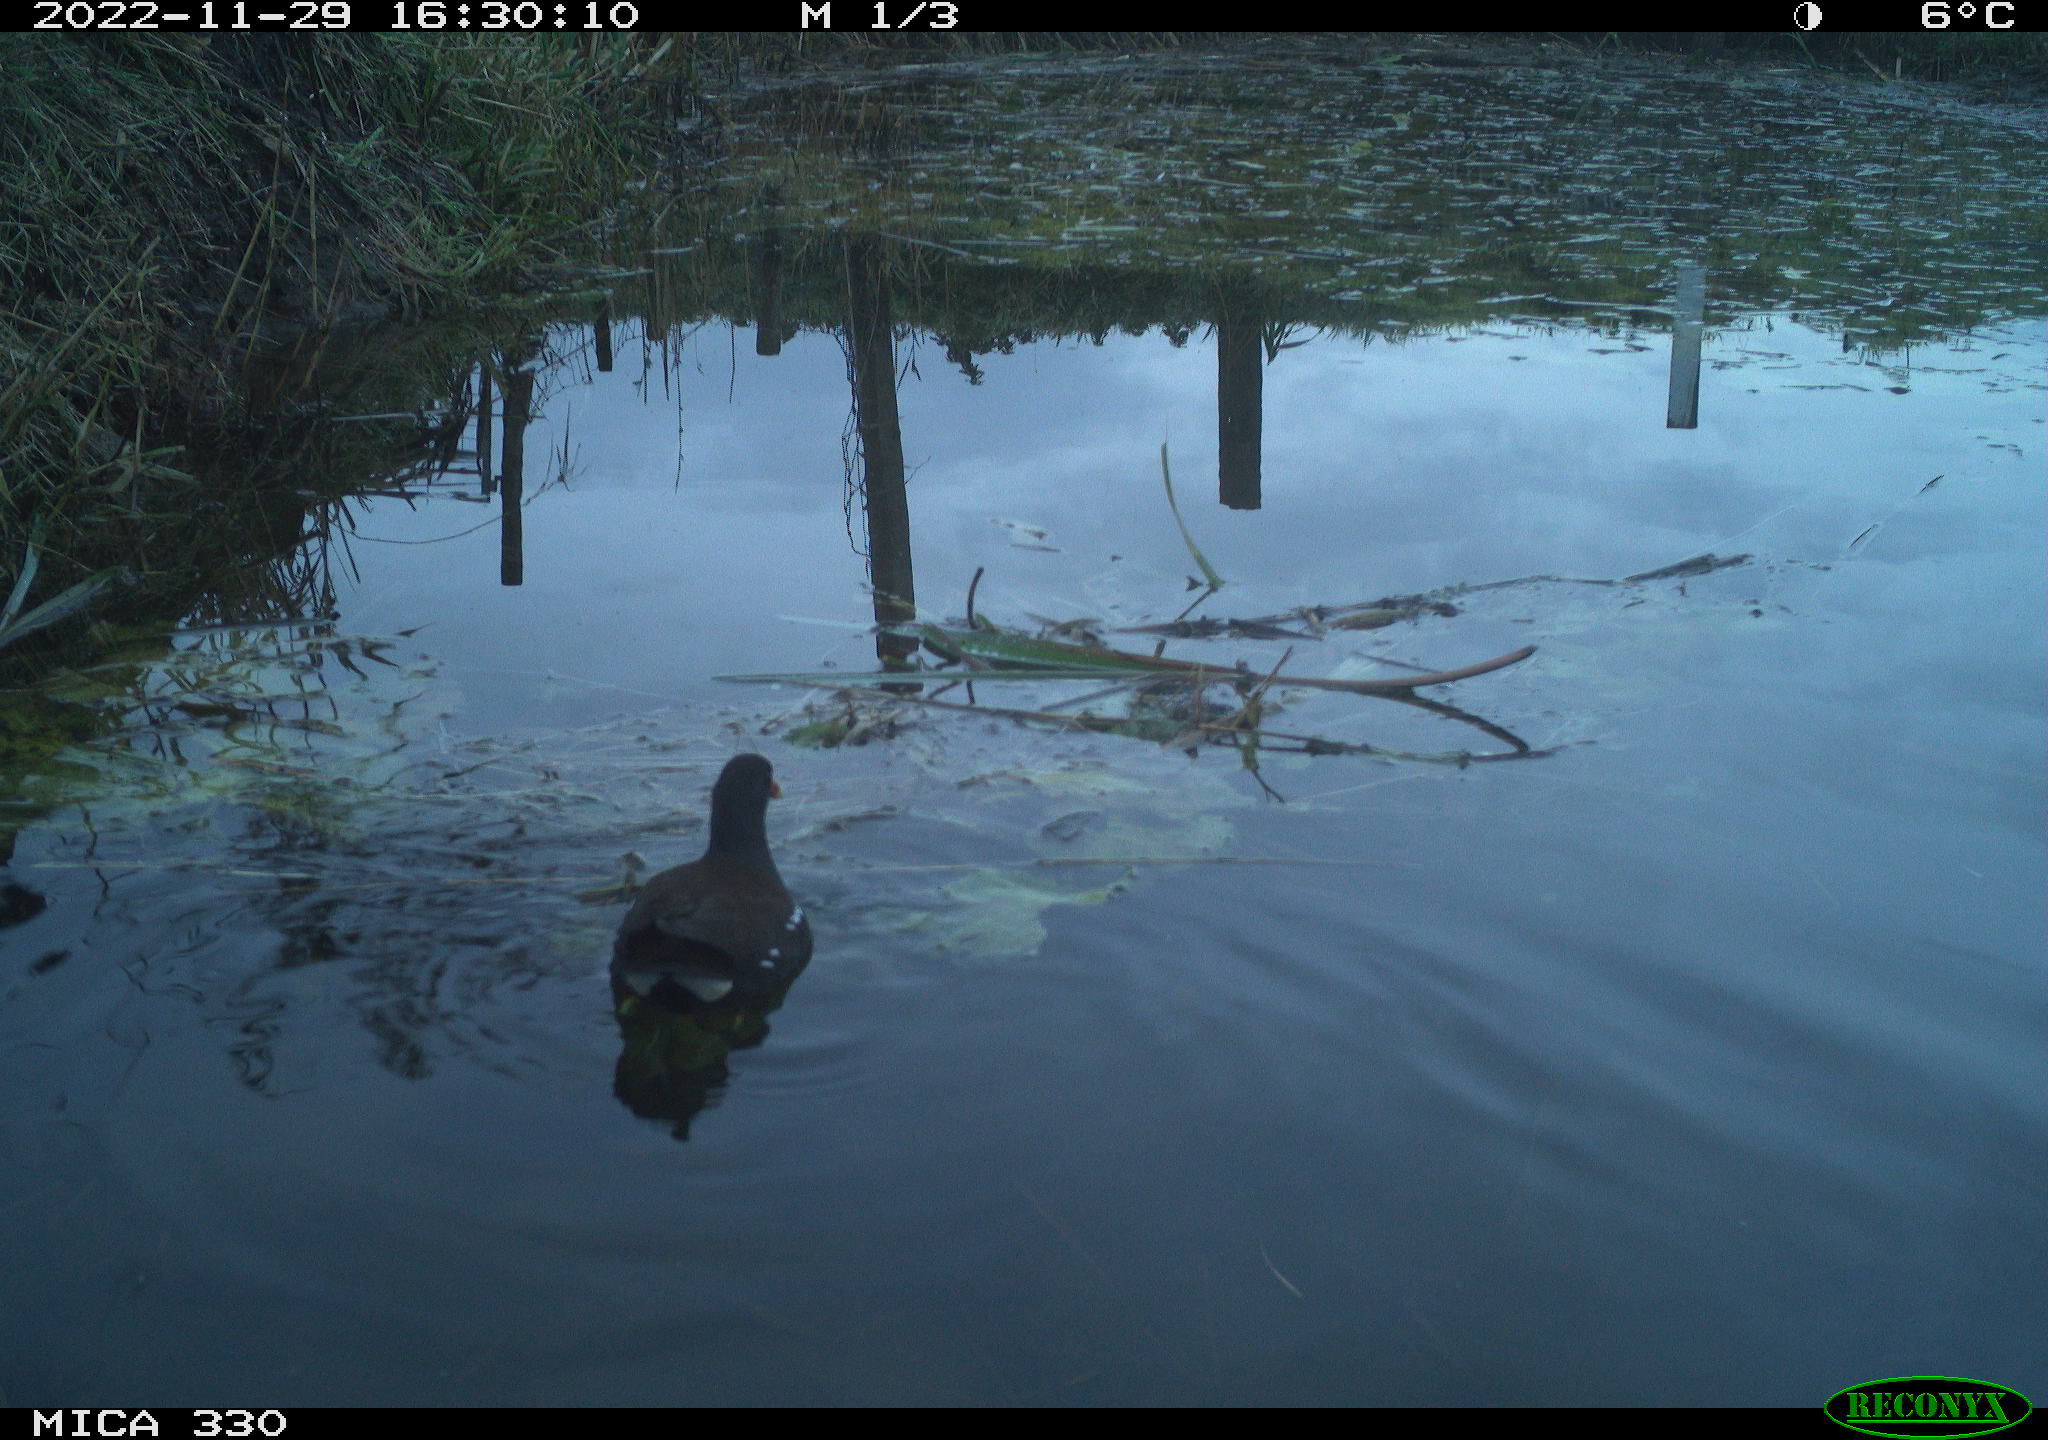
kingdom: Animalia
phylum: Chordata
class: Aves
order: Gruiformes
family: Rallidae
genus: Gallinula
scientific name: Gallinula chloropus
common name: Common moorhen
